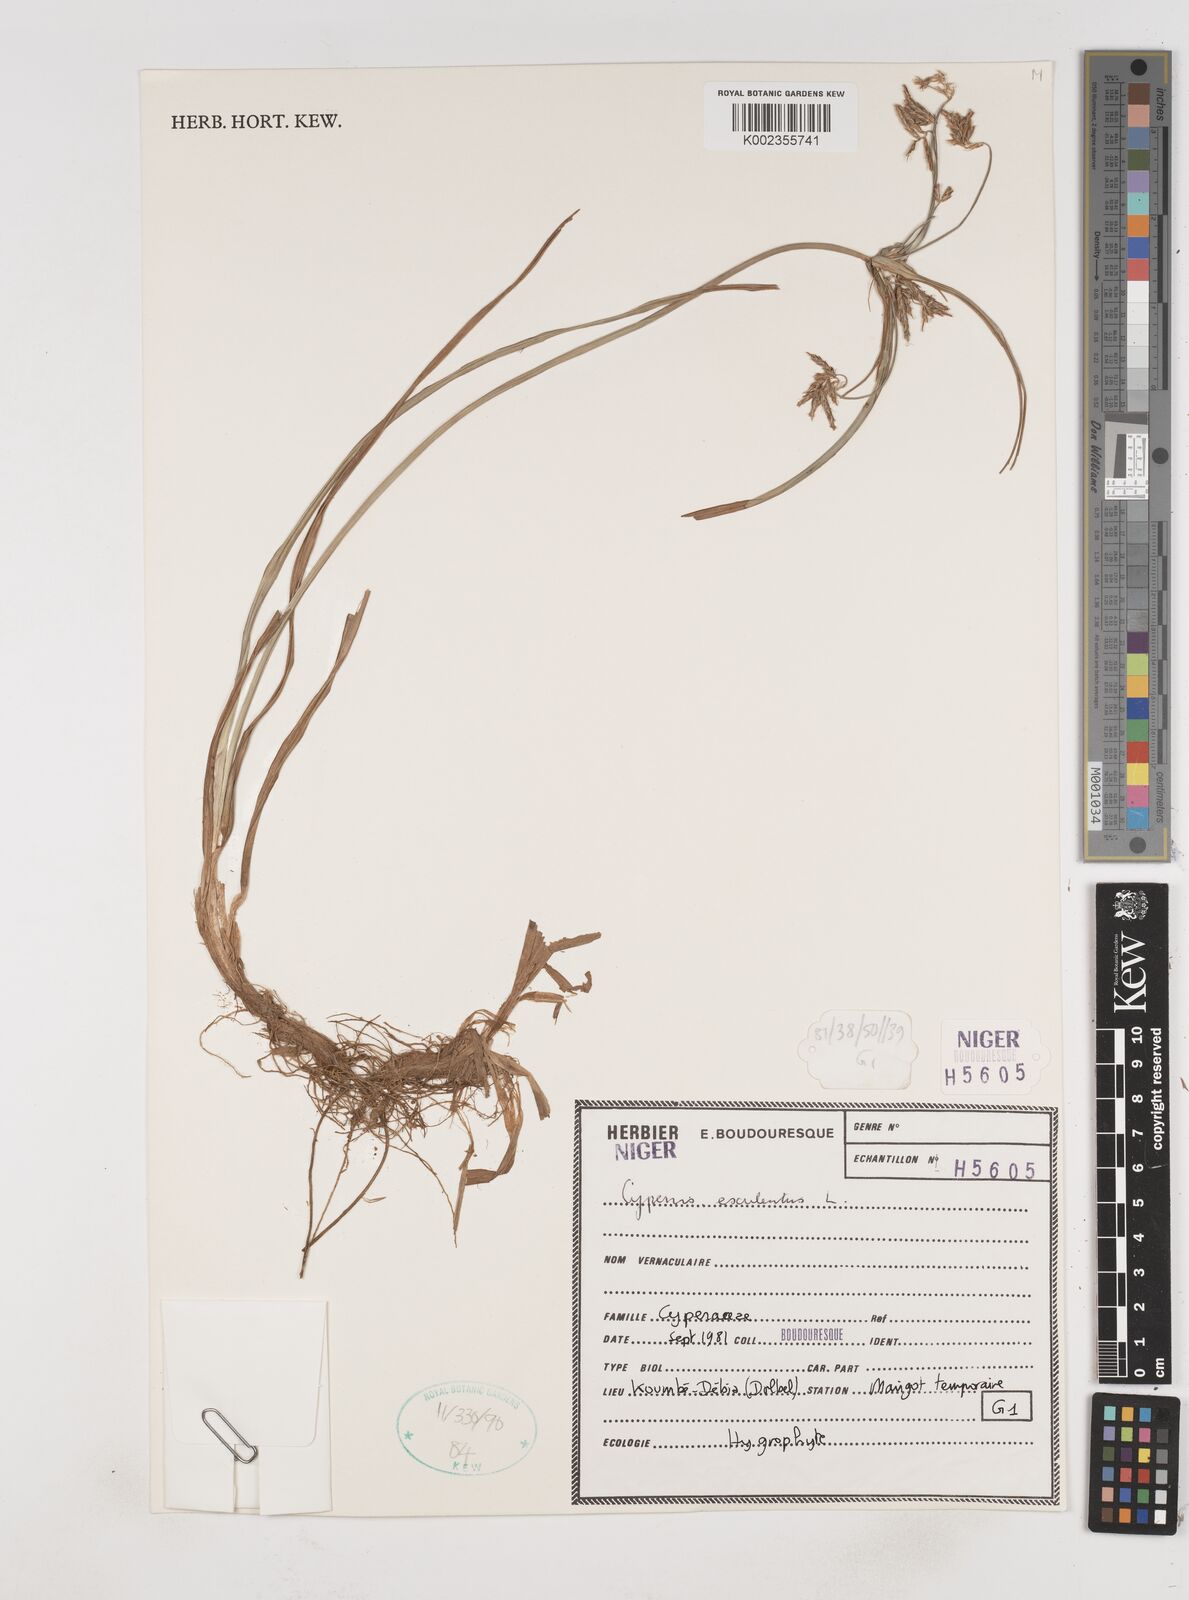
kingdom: Plantae
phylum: Tracheophyta
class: Liliopsida
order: Poales
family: Cyperaceae
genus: Cyperus
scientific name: Cyperus esculentus
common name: Yellow nutsedge
